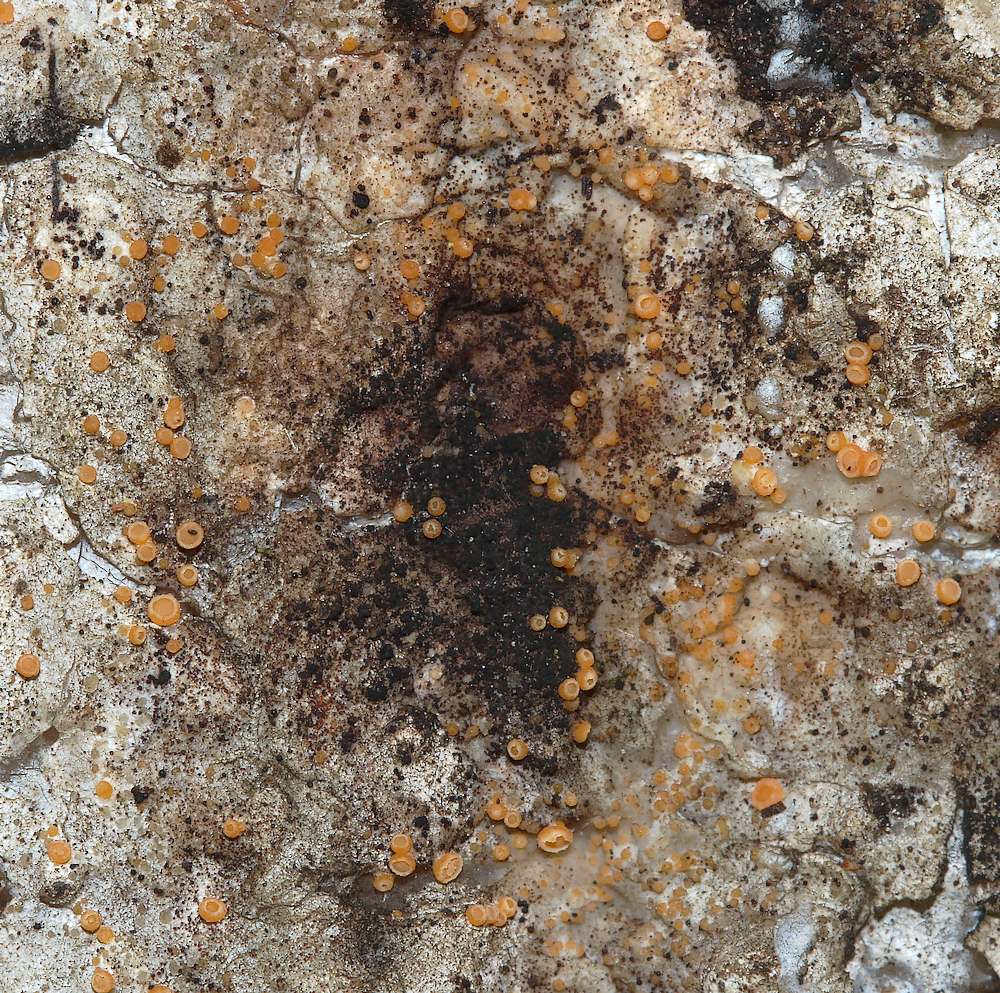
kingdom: Fungi
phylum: Ascomycota
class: Sareomycetes
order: Sareales
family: Sareaceae
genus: Sarea
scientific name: Sarea resinae
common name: orangegul harpiksskive
